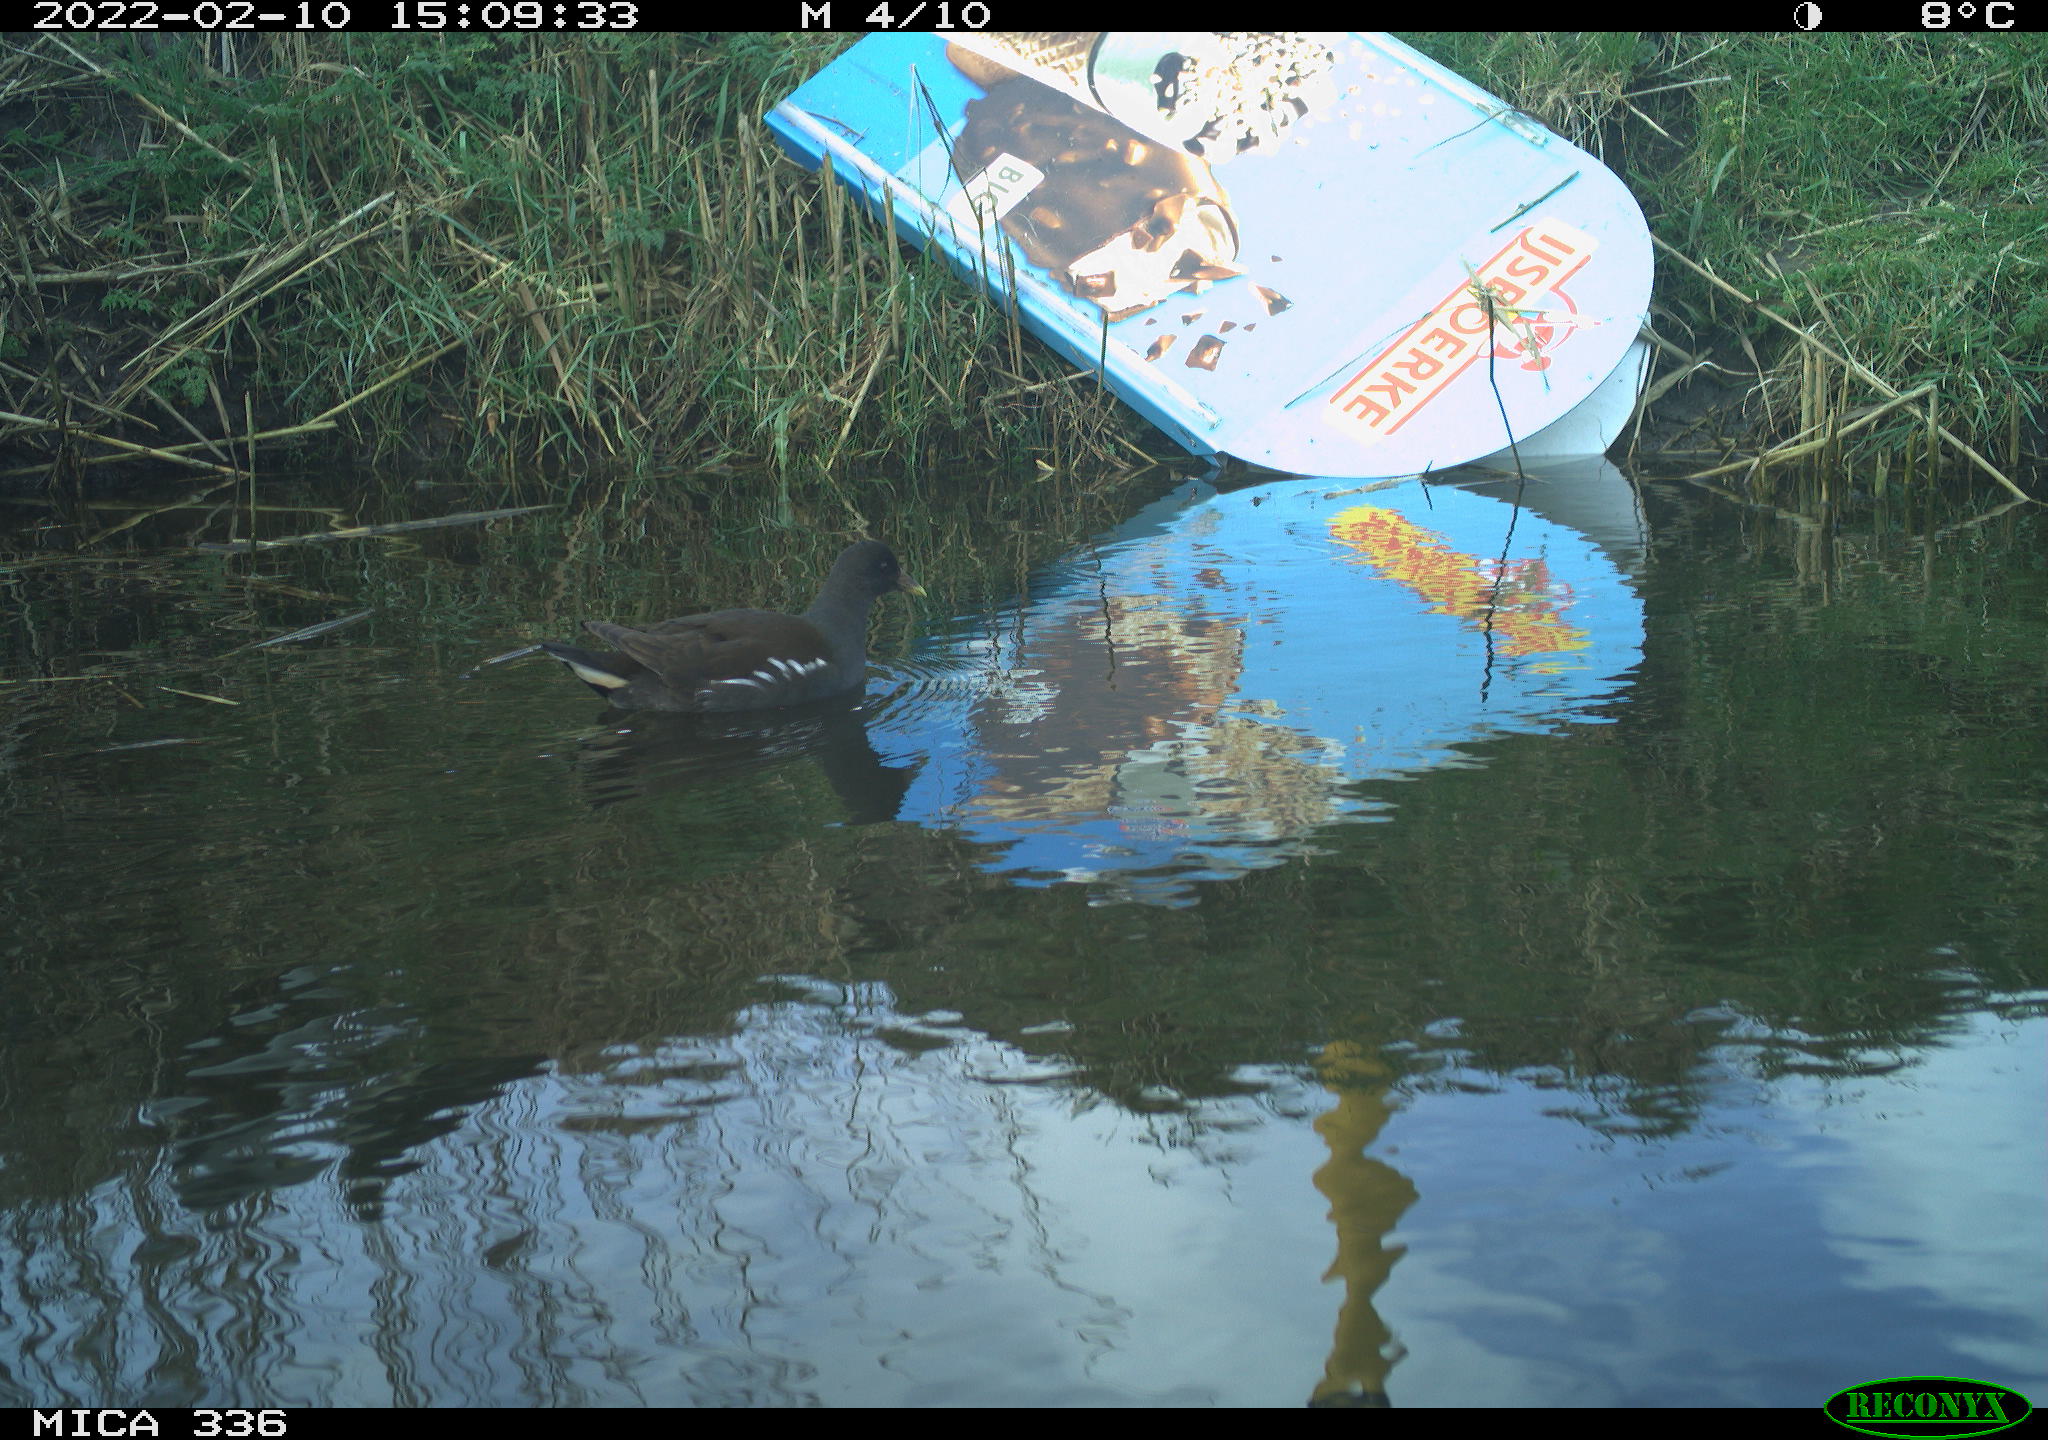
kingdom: Animalia
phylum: Chordata
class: Aves
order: Gruiformes
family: Rallidae
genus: Gallinula
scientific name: Gallinula chloropus
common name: Common moorhen
